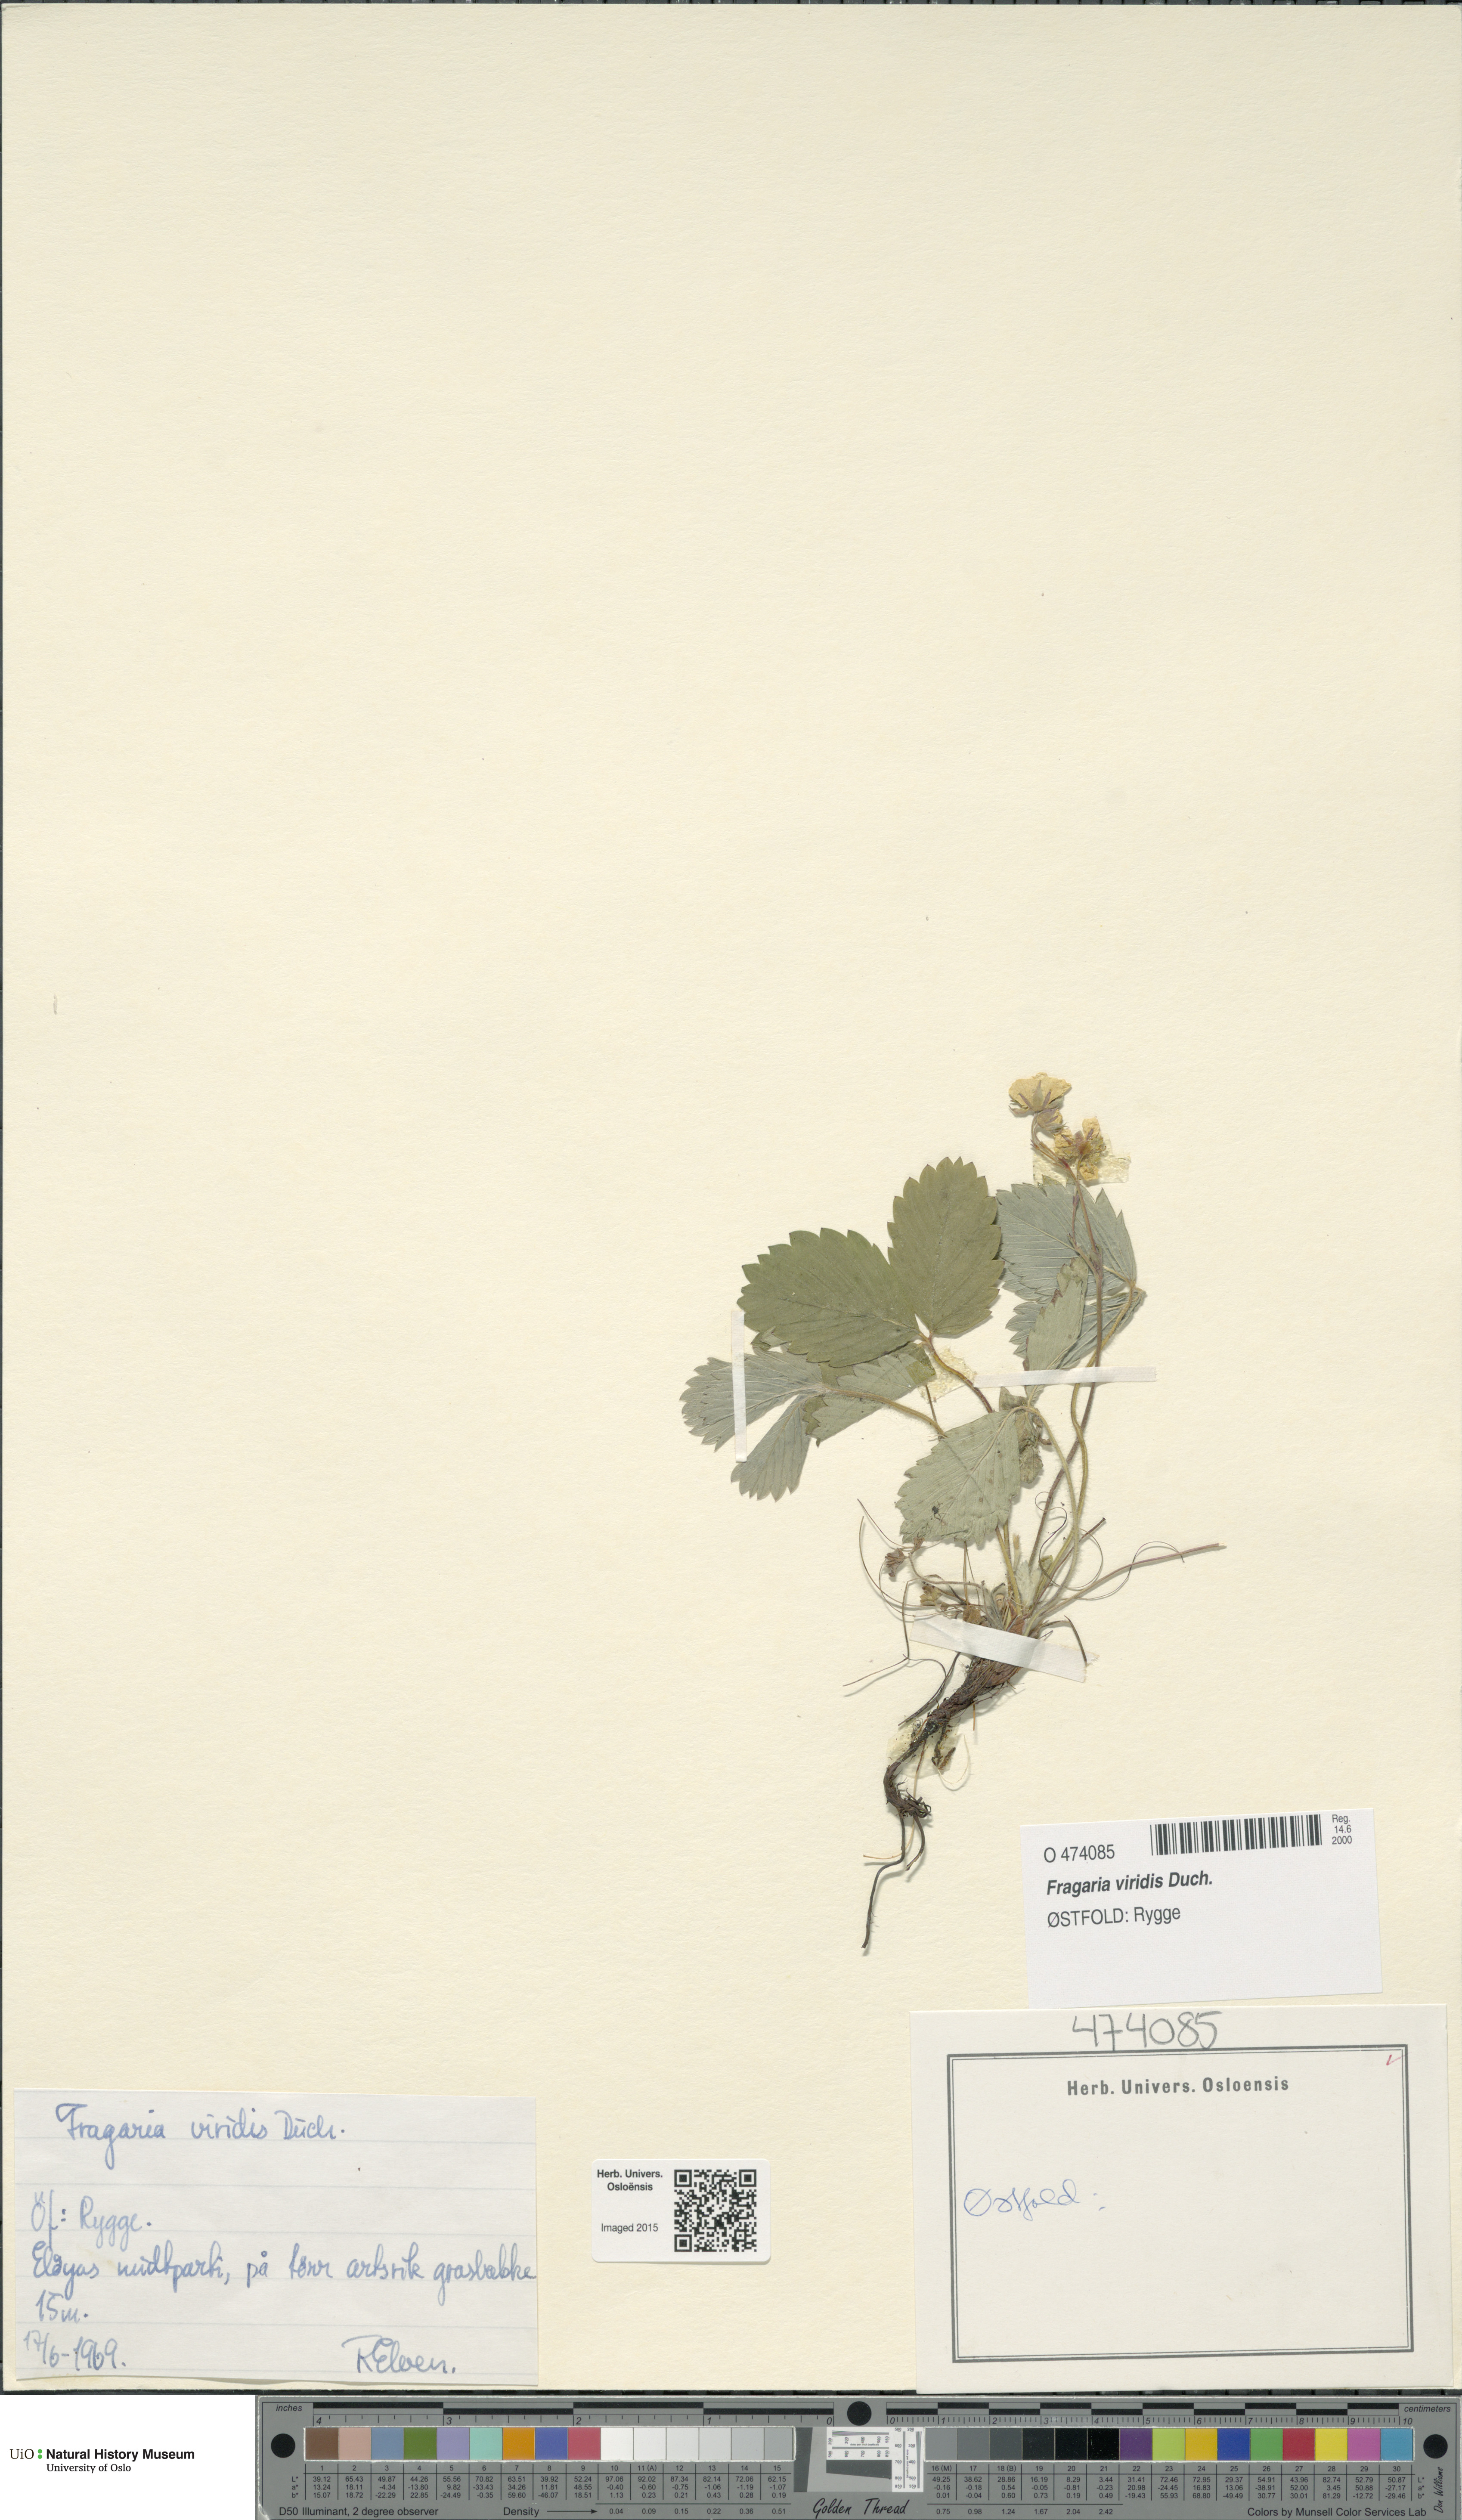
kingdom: Plantae
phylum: Tracheophyta
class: Magnoliopsida
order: Rosales
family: Rosaceae
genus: Fragaria
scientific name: Fragaria viridis
